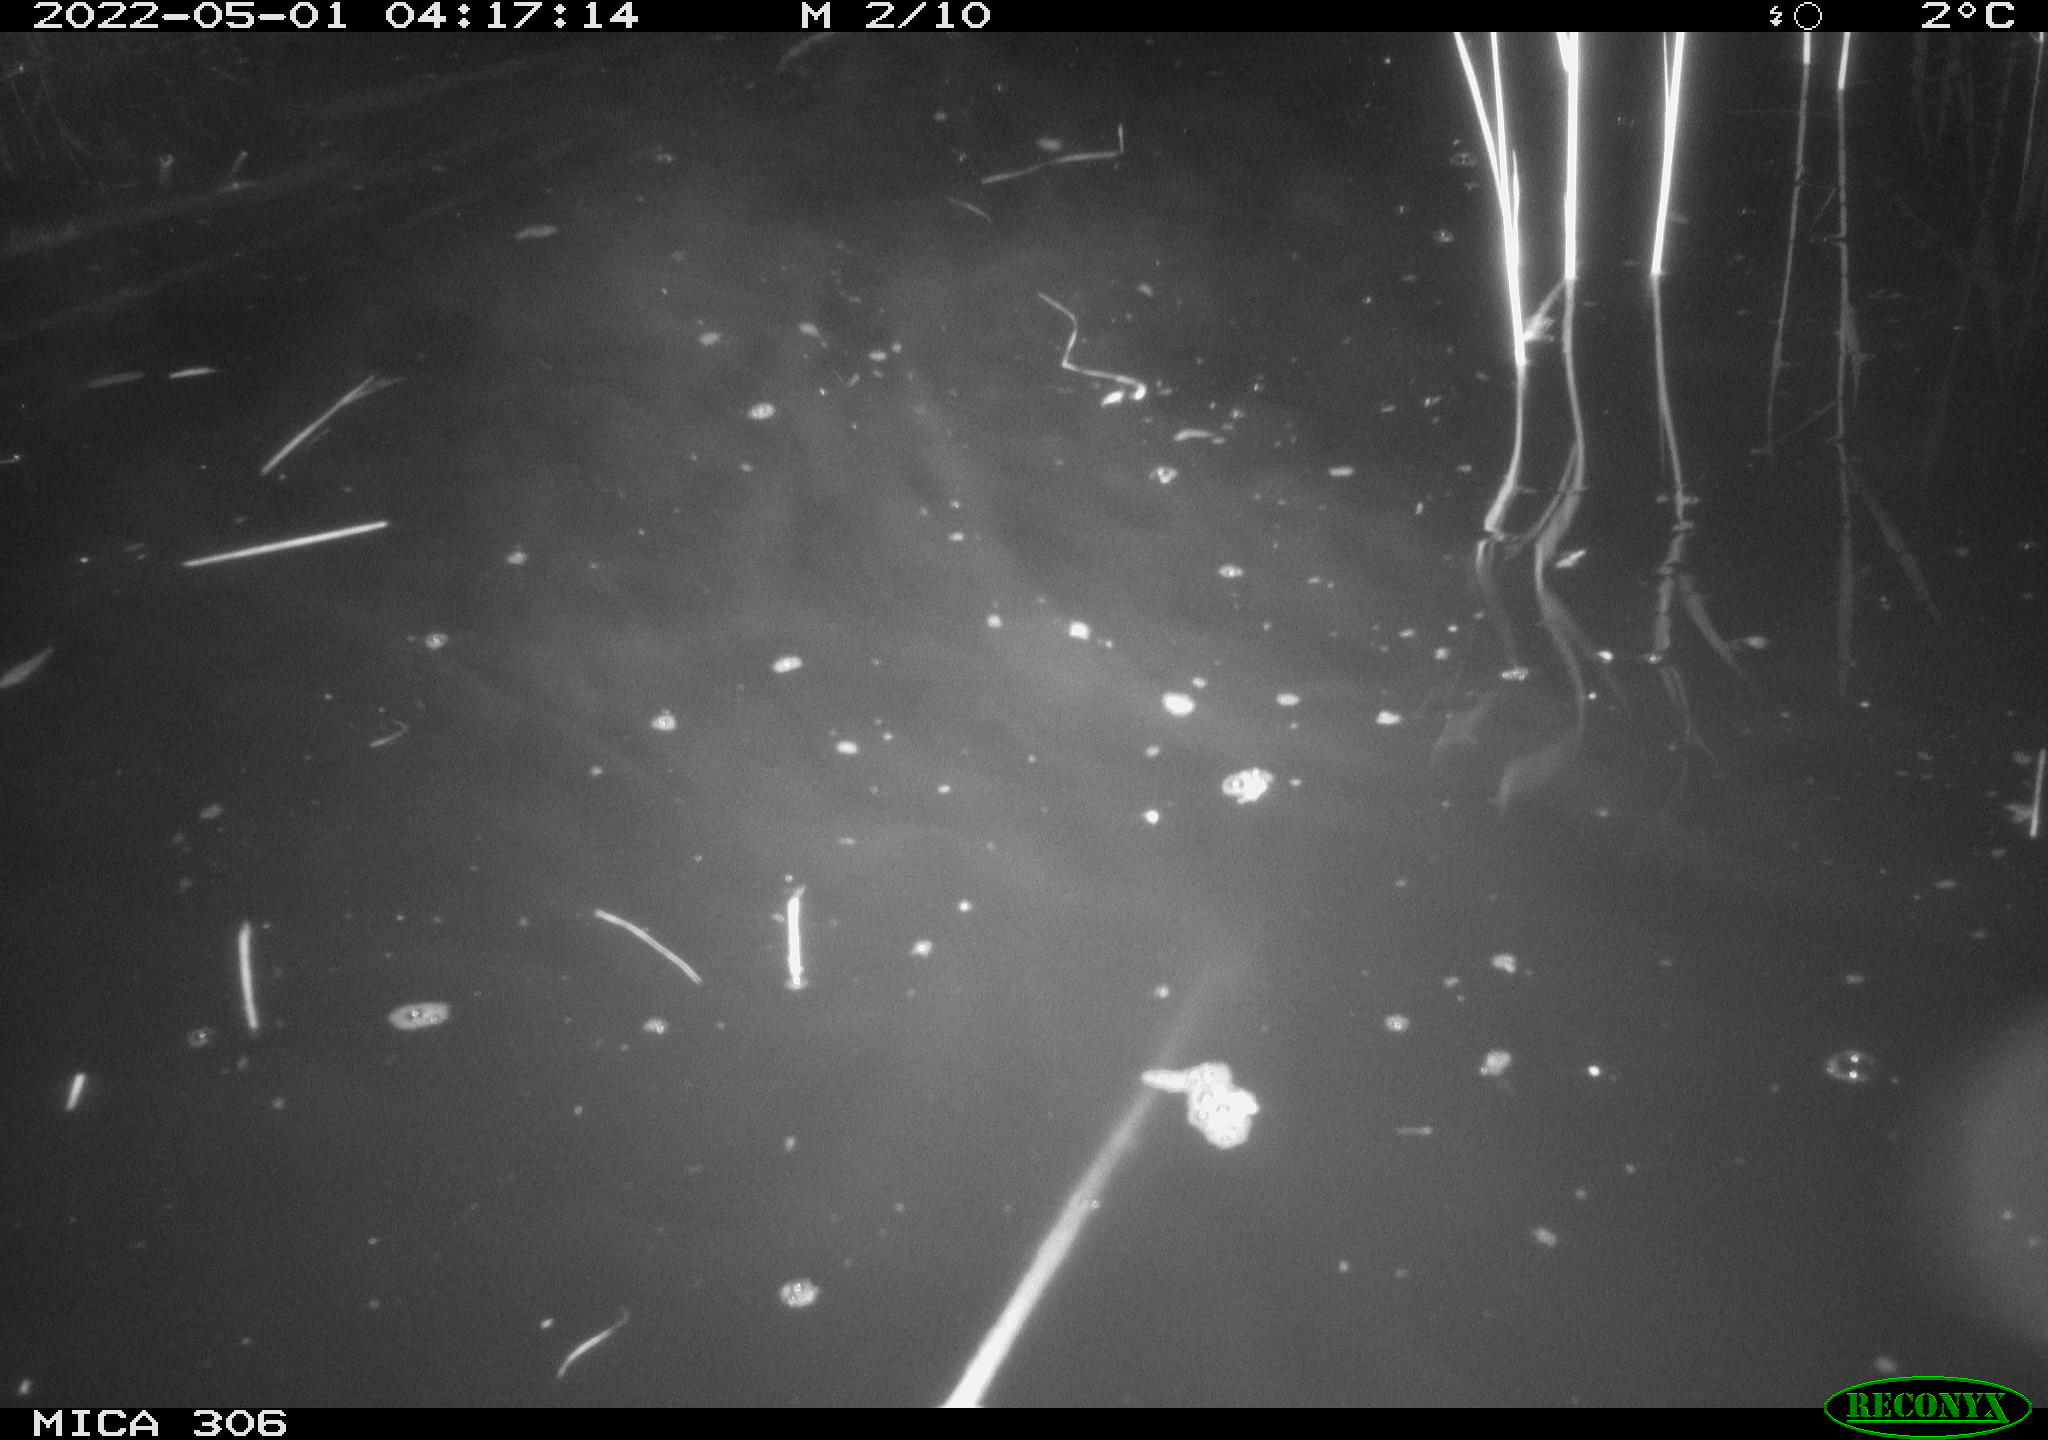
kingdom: Animalia
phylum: Chordata
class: Mammalia
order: Rodentia
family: Cricetidae
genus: Ondatra
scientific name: Ondatra zibethicus
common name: Muskrat
